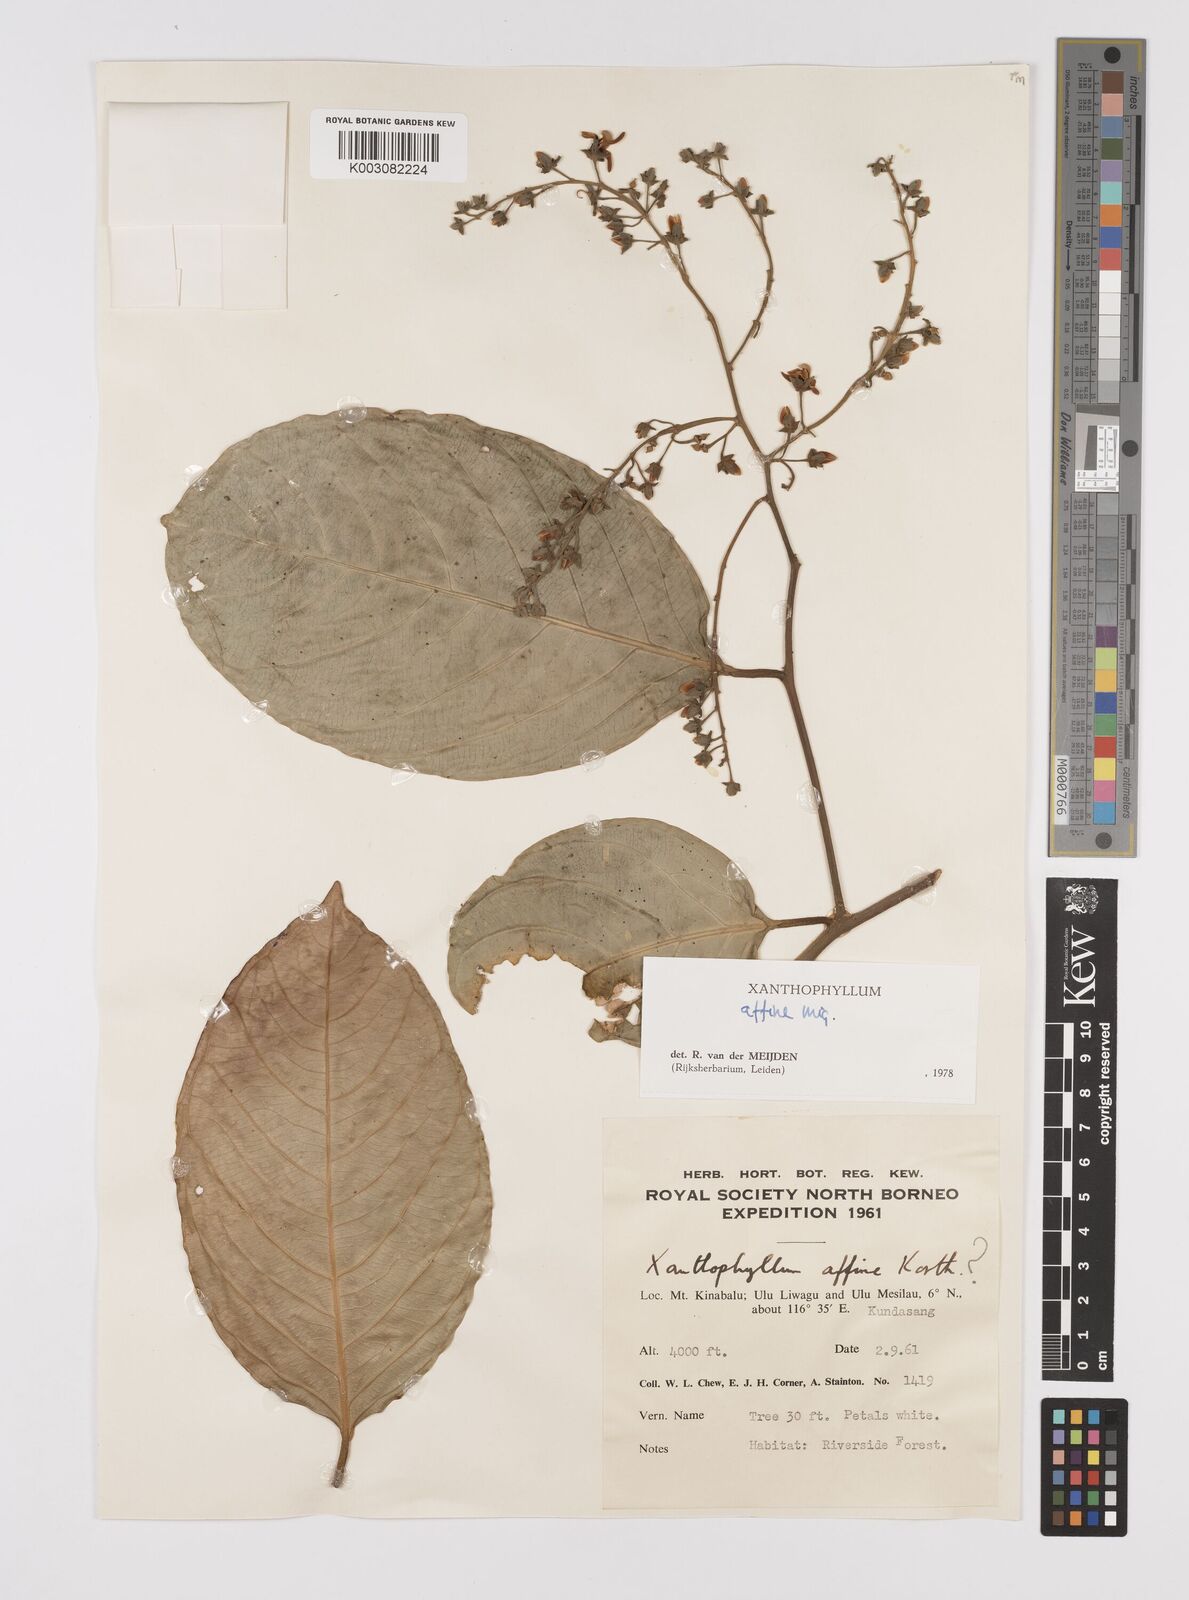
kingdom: Plantae
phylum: Tracheophyta
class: Magnoliopsida
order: Fabales
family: Polygalaceae
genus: Xanthophyllum
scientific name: Xanthophyllum flavescens
